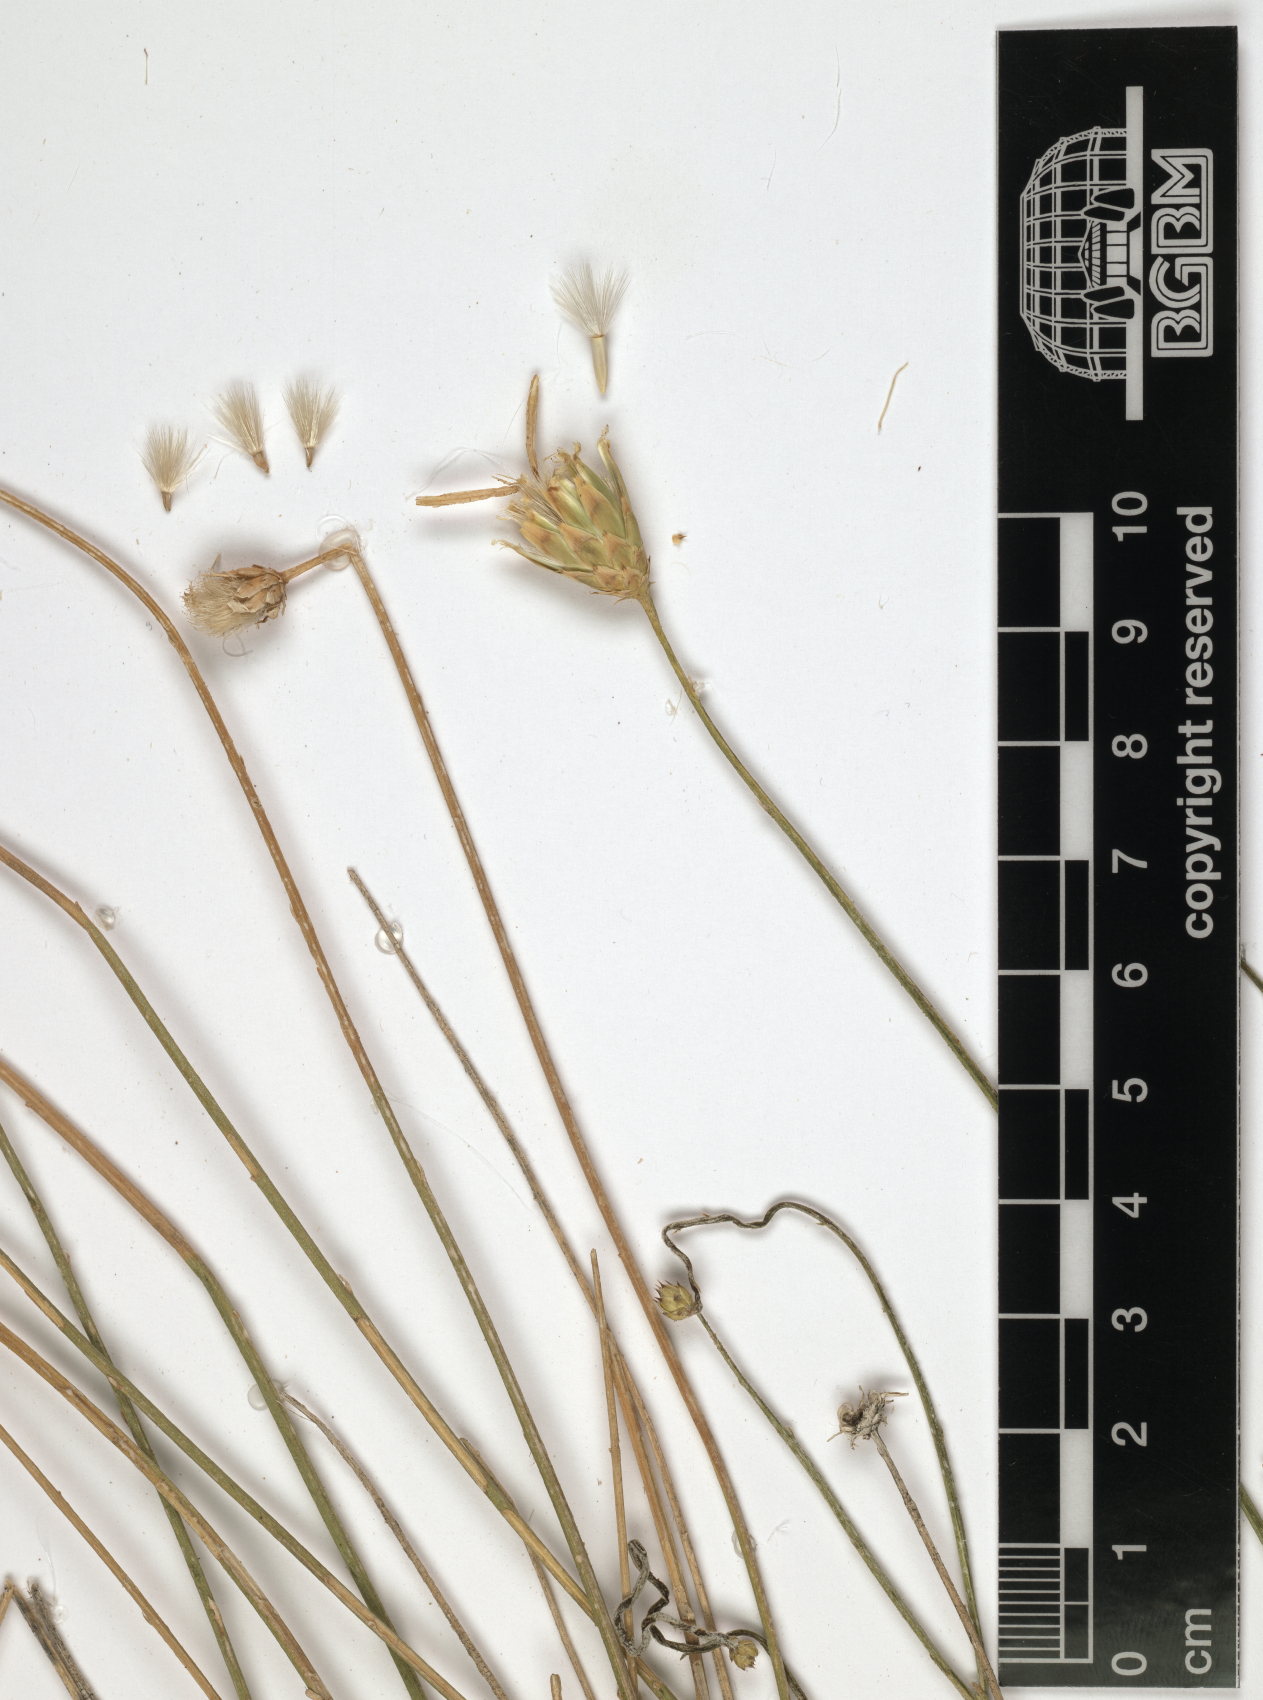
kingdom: Plantae
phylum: Tracheophyta
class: Magnoliopsida
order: Asterales
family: Asteraceae
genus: Centaurea
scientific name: Centaurea schimperi
